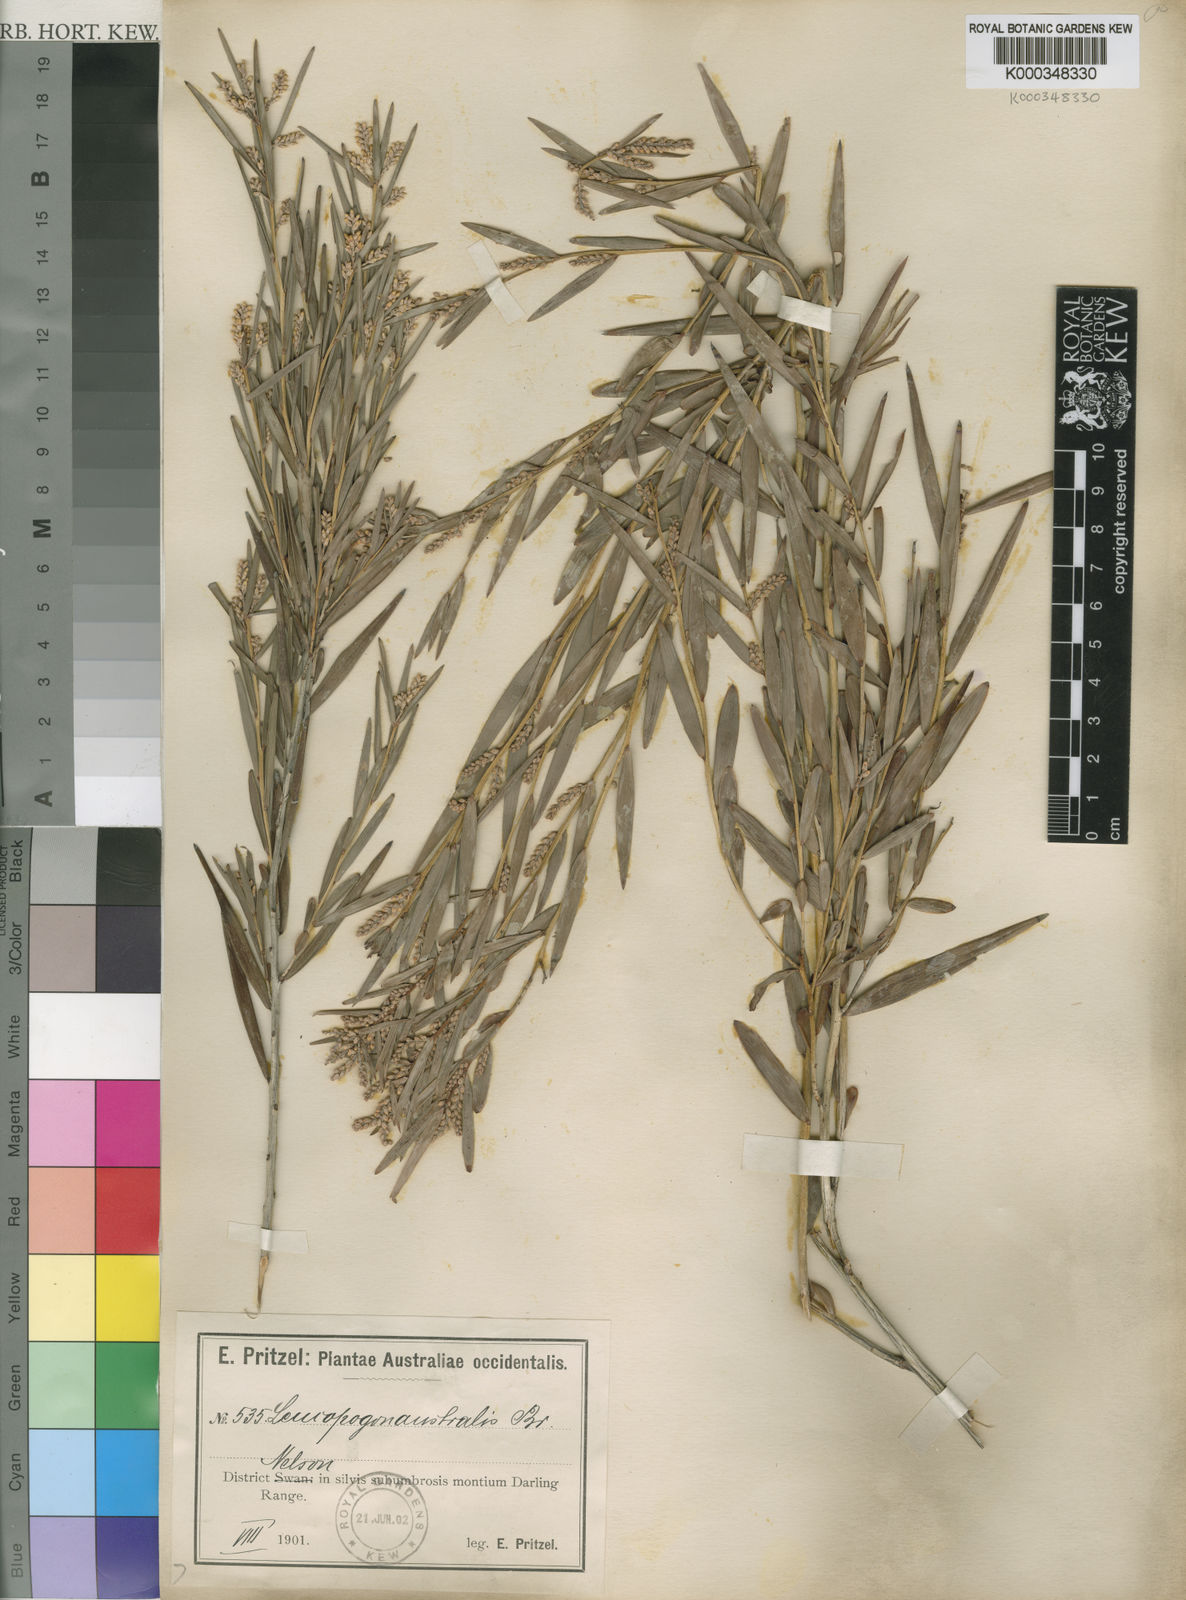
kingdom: Plantae
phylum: Tracheophyta
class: Magnoliopsida
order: Ericales
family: Ericaceae
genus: Leucopogon
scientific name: Leucopogon australis
